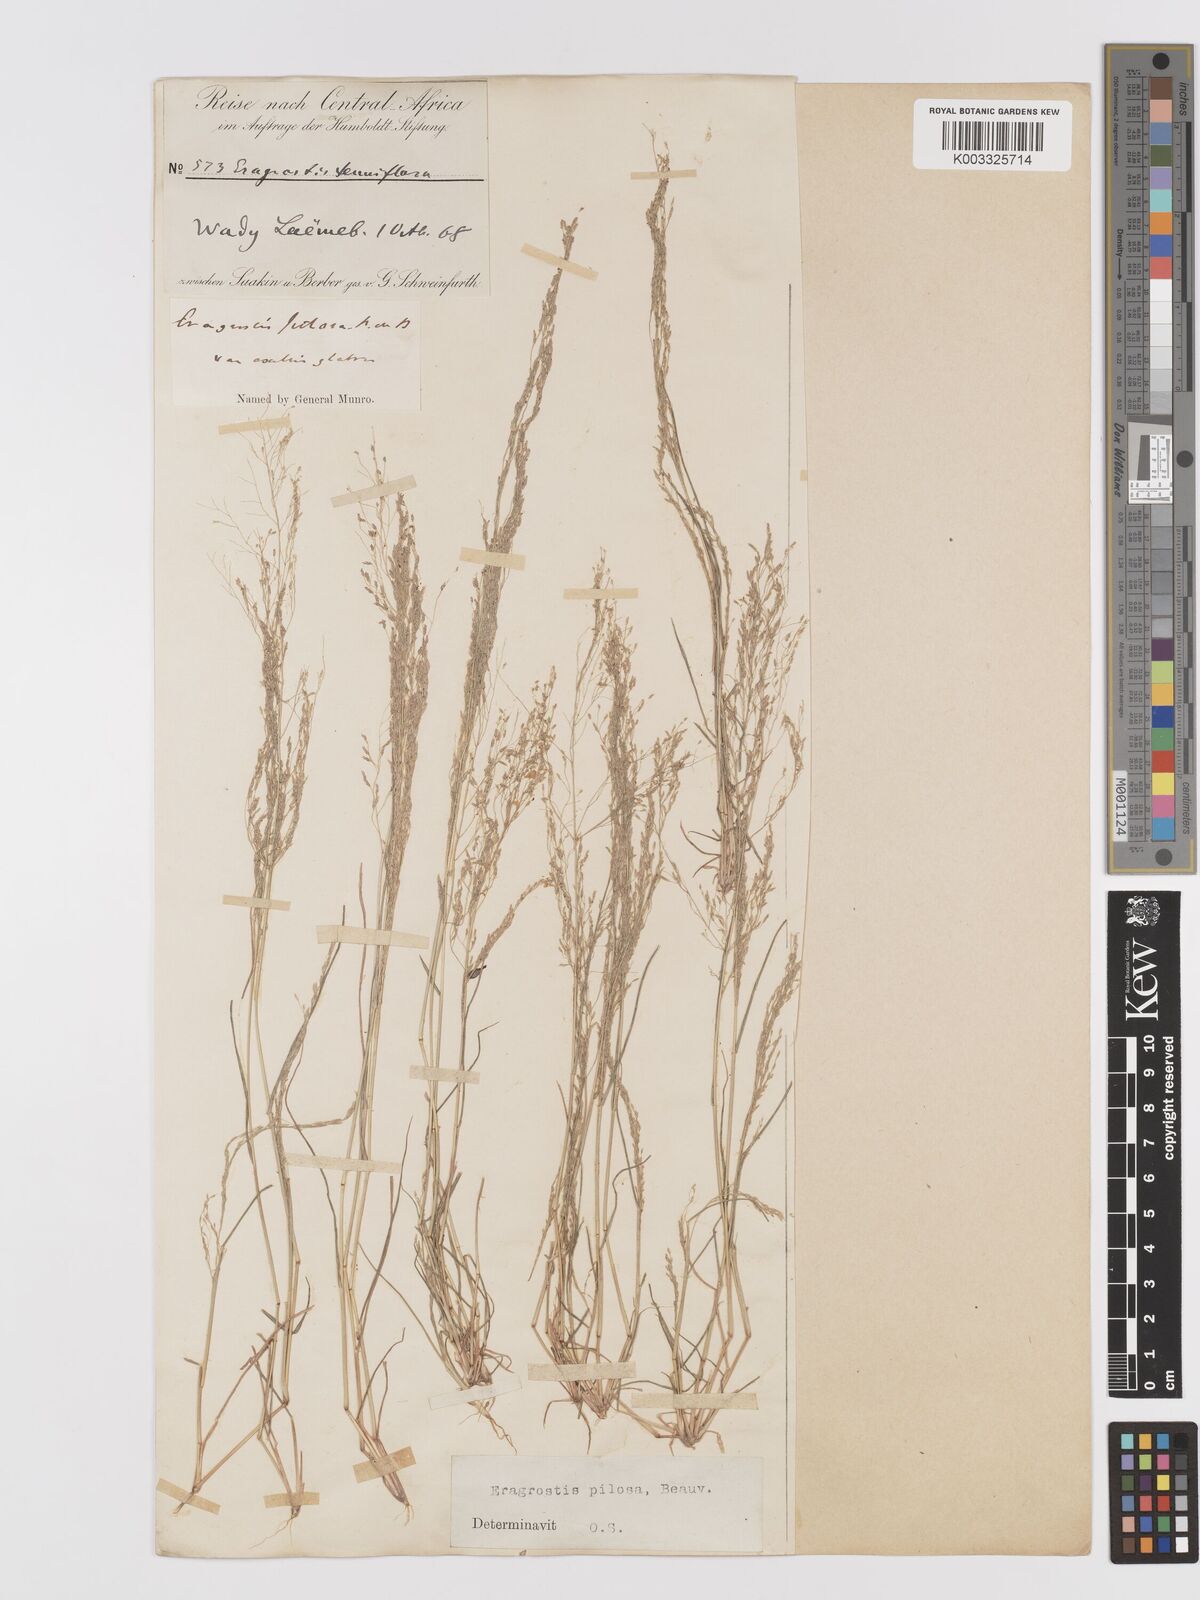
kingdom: Plantae
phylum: Tracheophyta
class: Liliopsida
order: Poales
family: Poaceae
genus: Eragrostis
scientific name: Eragrostis pilosa
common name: Indian lovegrass
